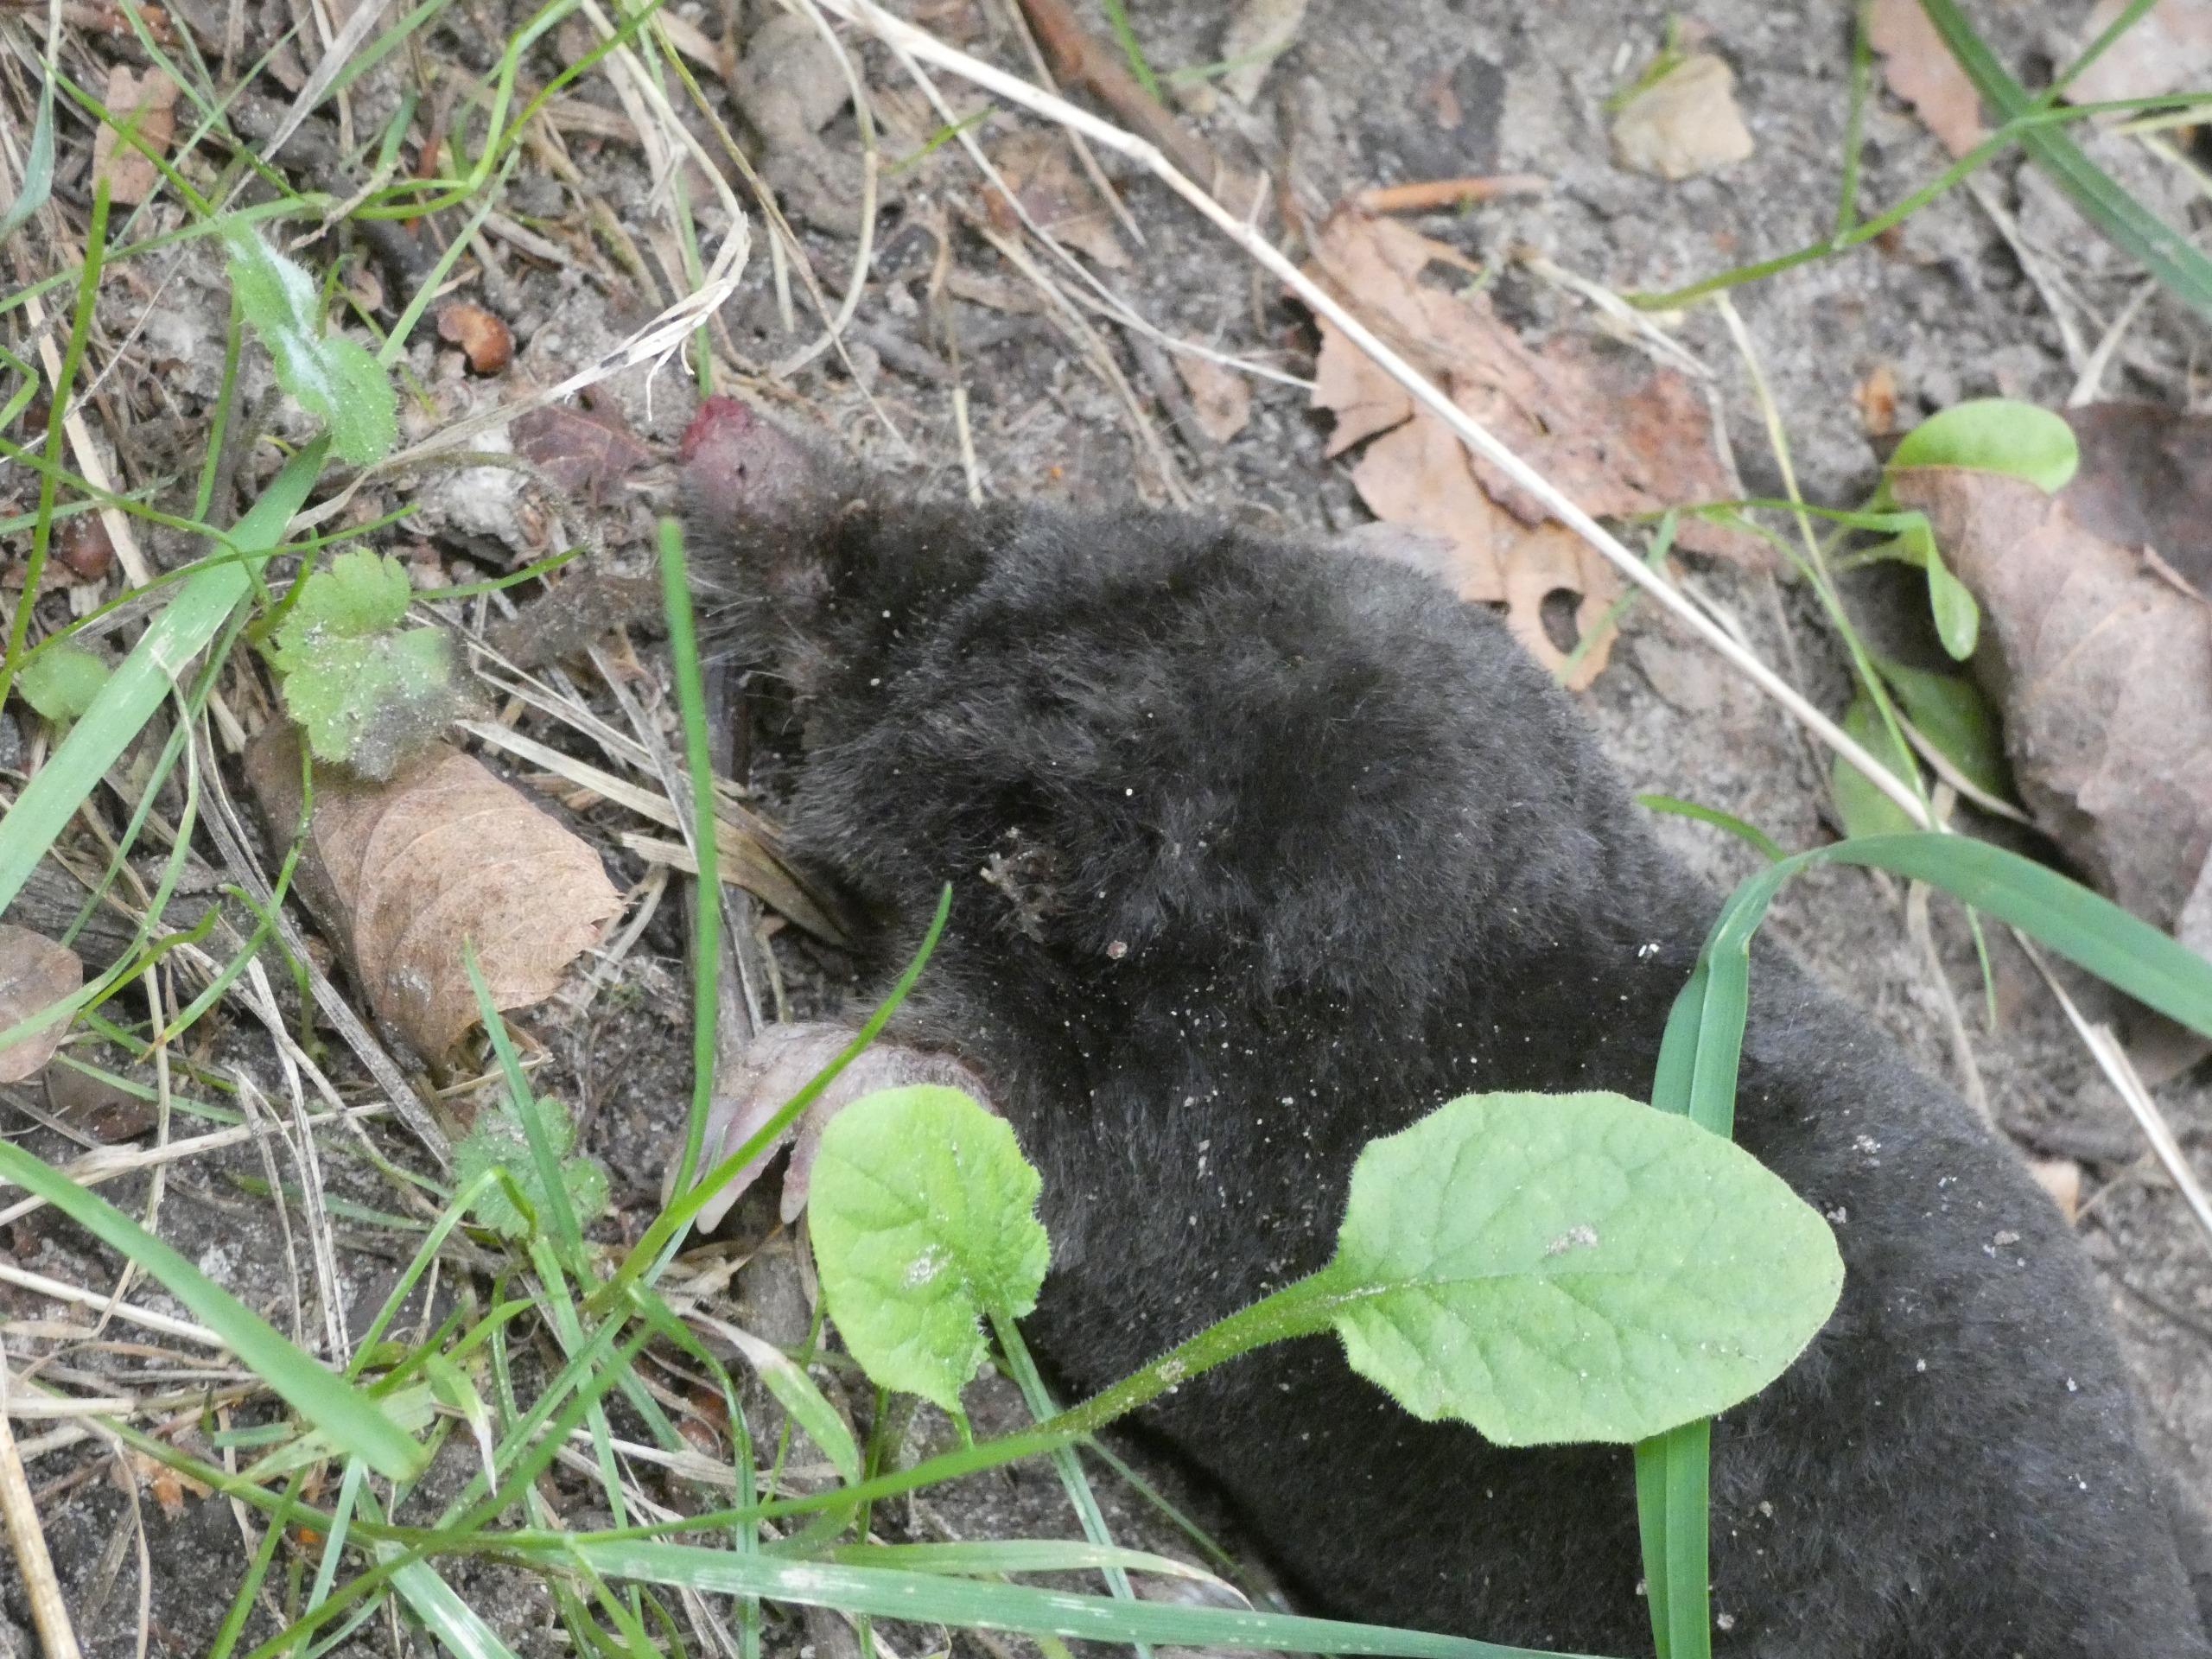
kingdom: Animalia
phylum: Chordata
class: Mammalia
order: Soricomorpha
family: Talpidae
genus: Talpa
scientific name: Talpa europaea
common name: Muldvarp
